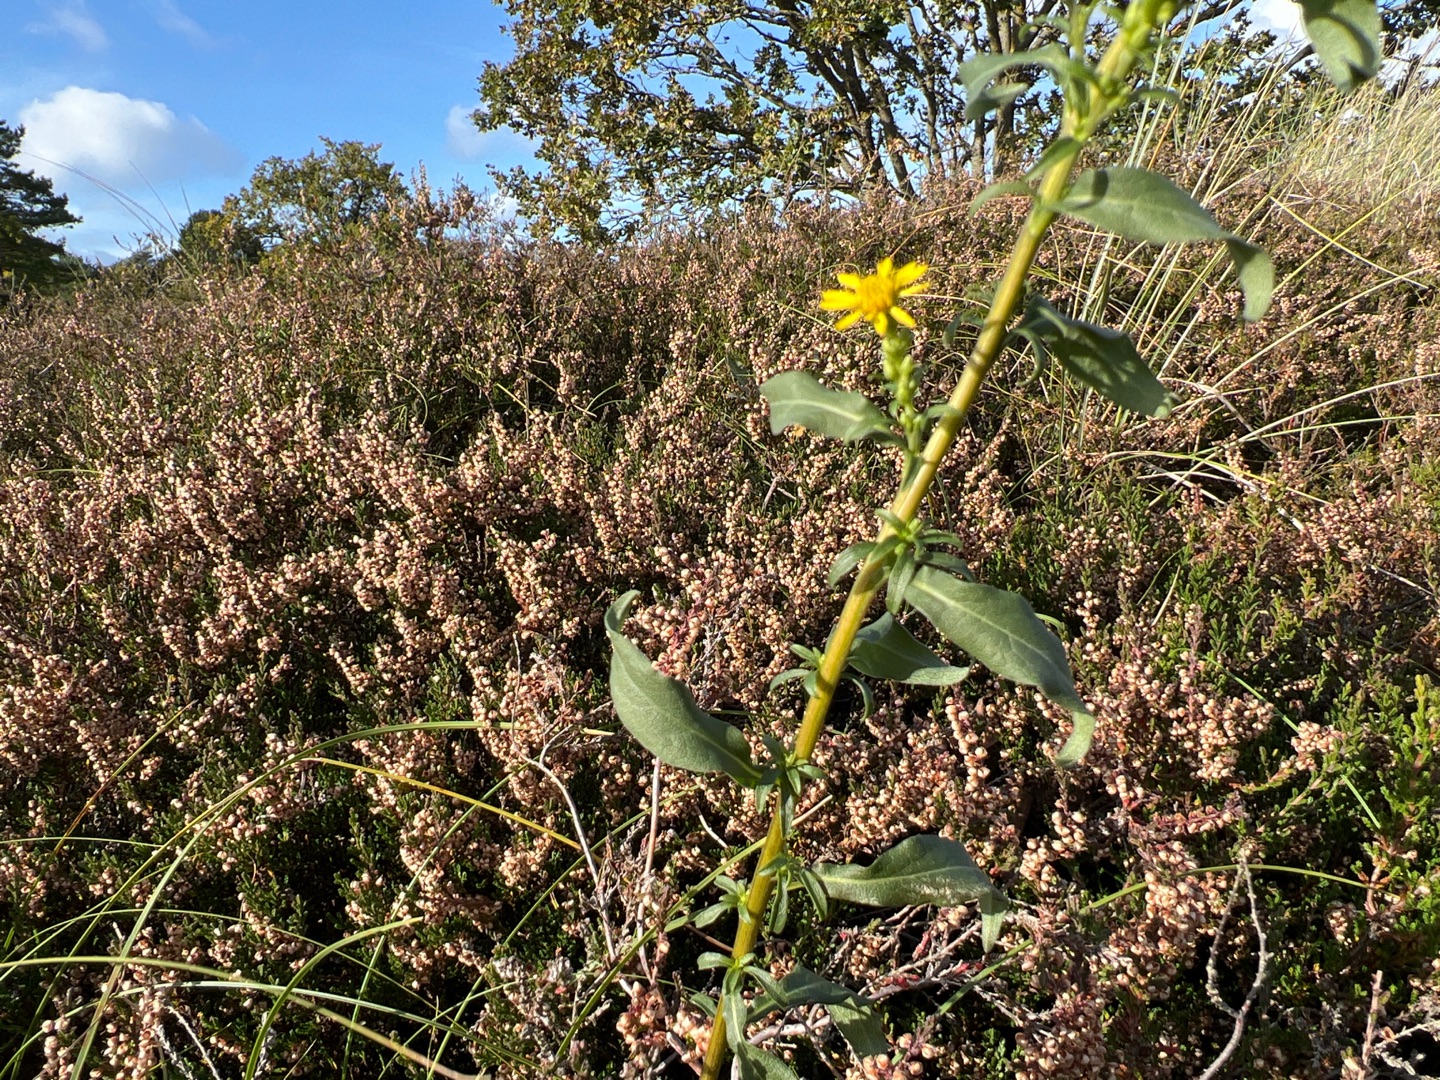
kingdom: Plantae
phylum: Tracheophyta
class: Magnoliopsida
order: Asterales
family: Asteraceae
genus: Solidago
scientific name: Solidago virgaurea
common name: Almindelig gyldenris
